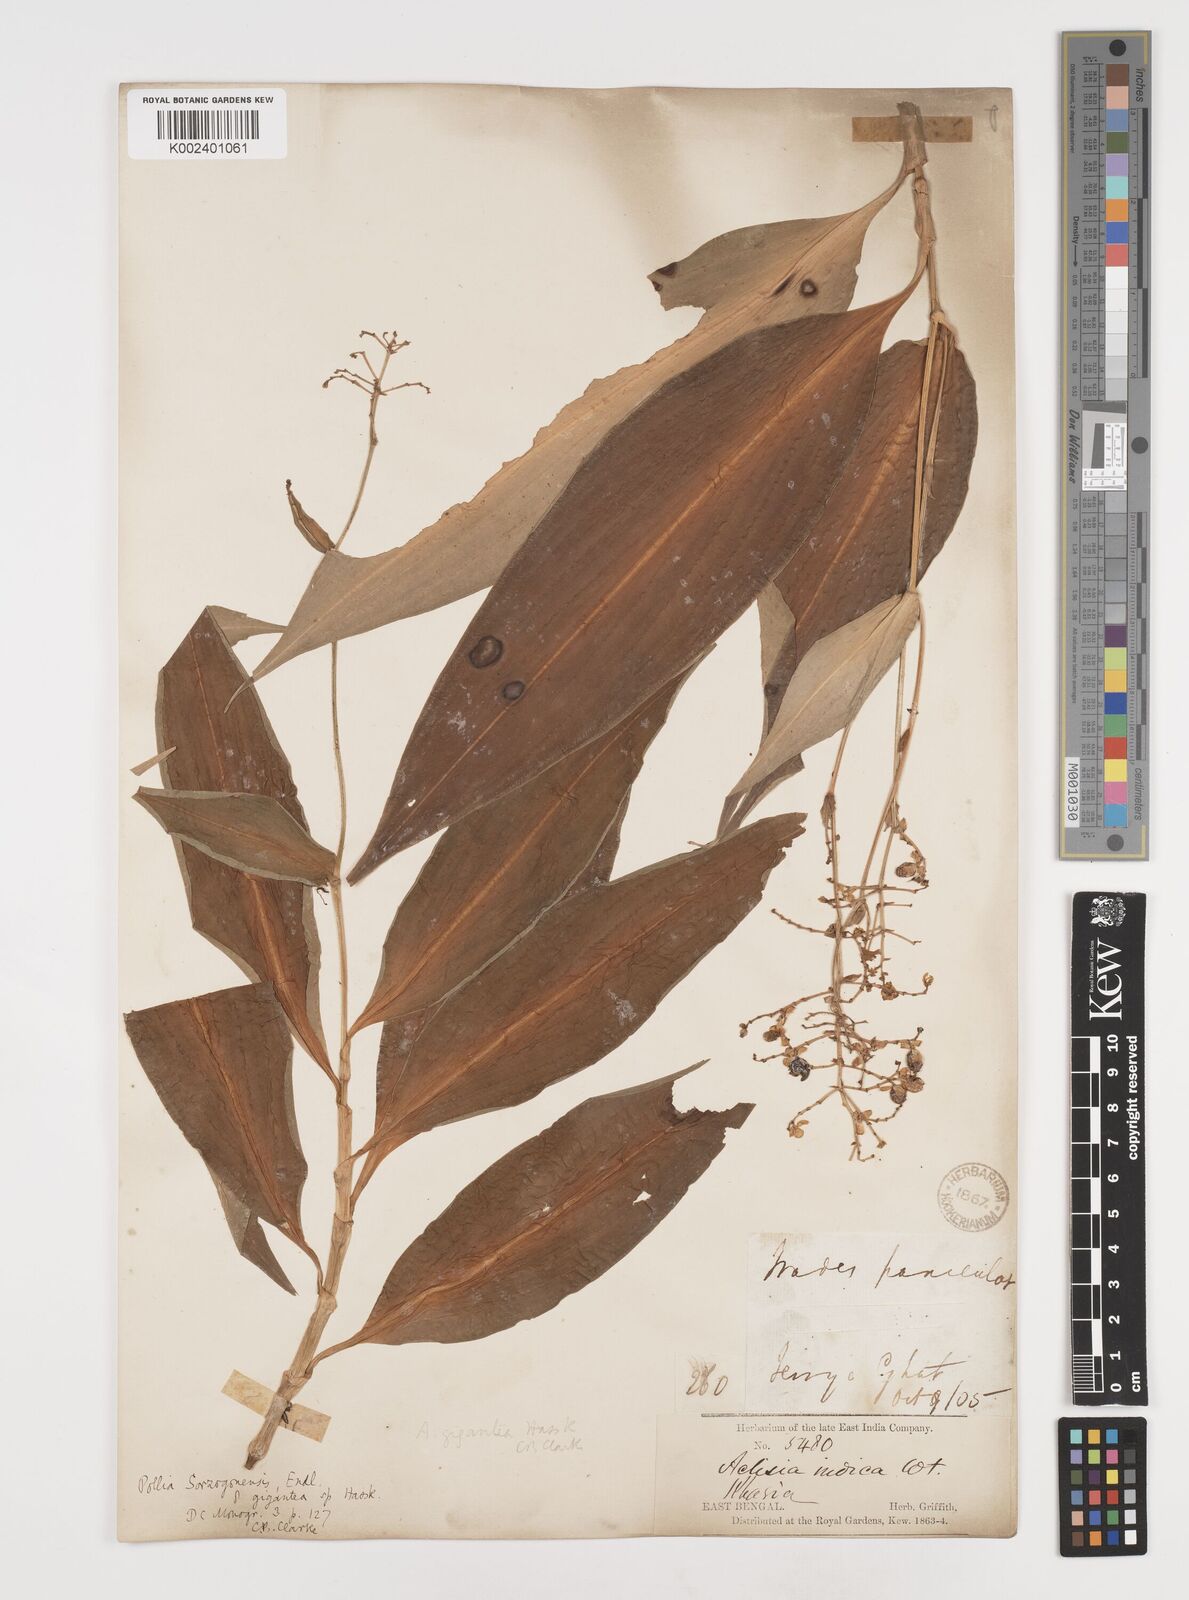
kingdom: Plantae
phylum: Tracheophyta
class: Liliopsida
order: Commelinales
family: Commelinaceae
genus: Pollia
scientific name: Pollia secundiflora
